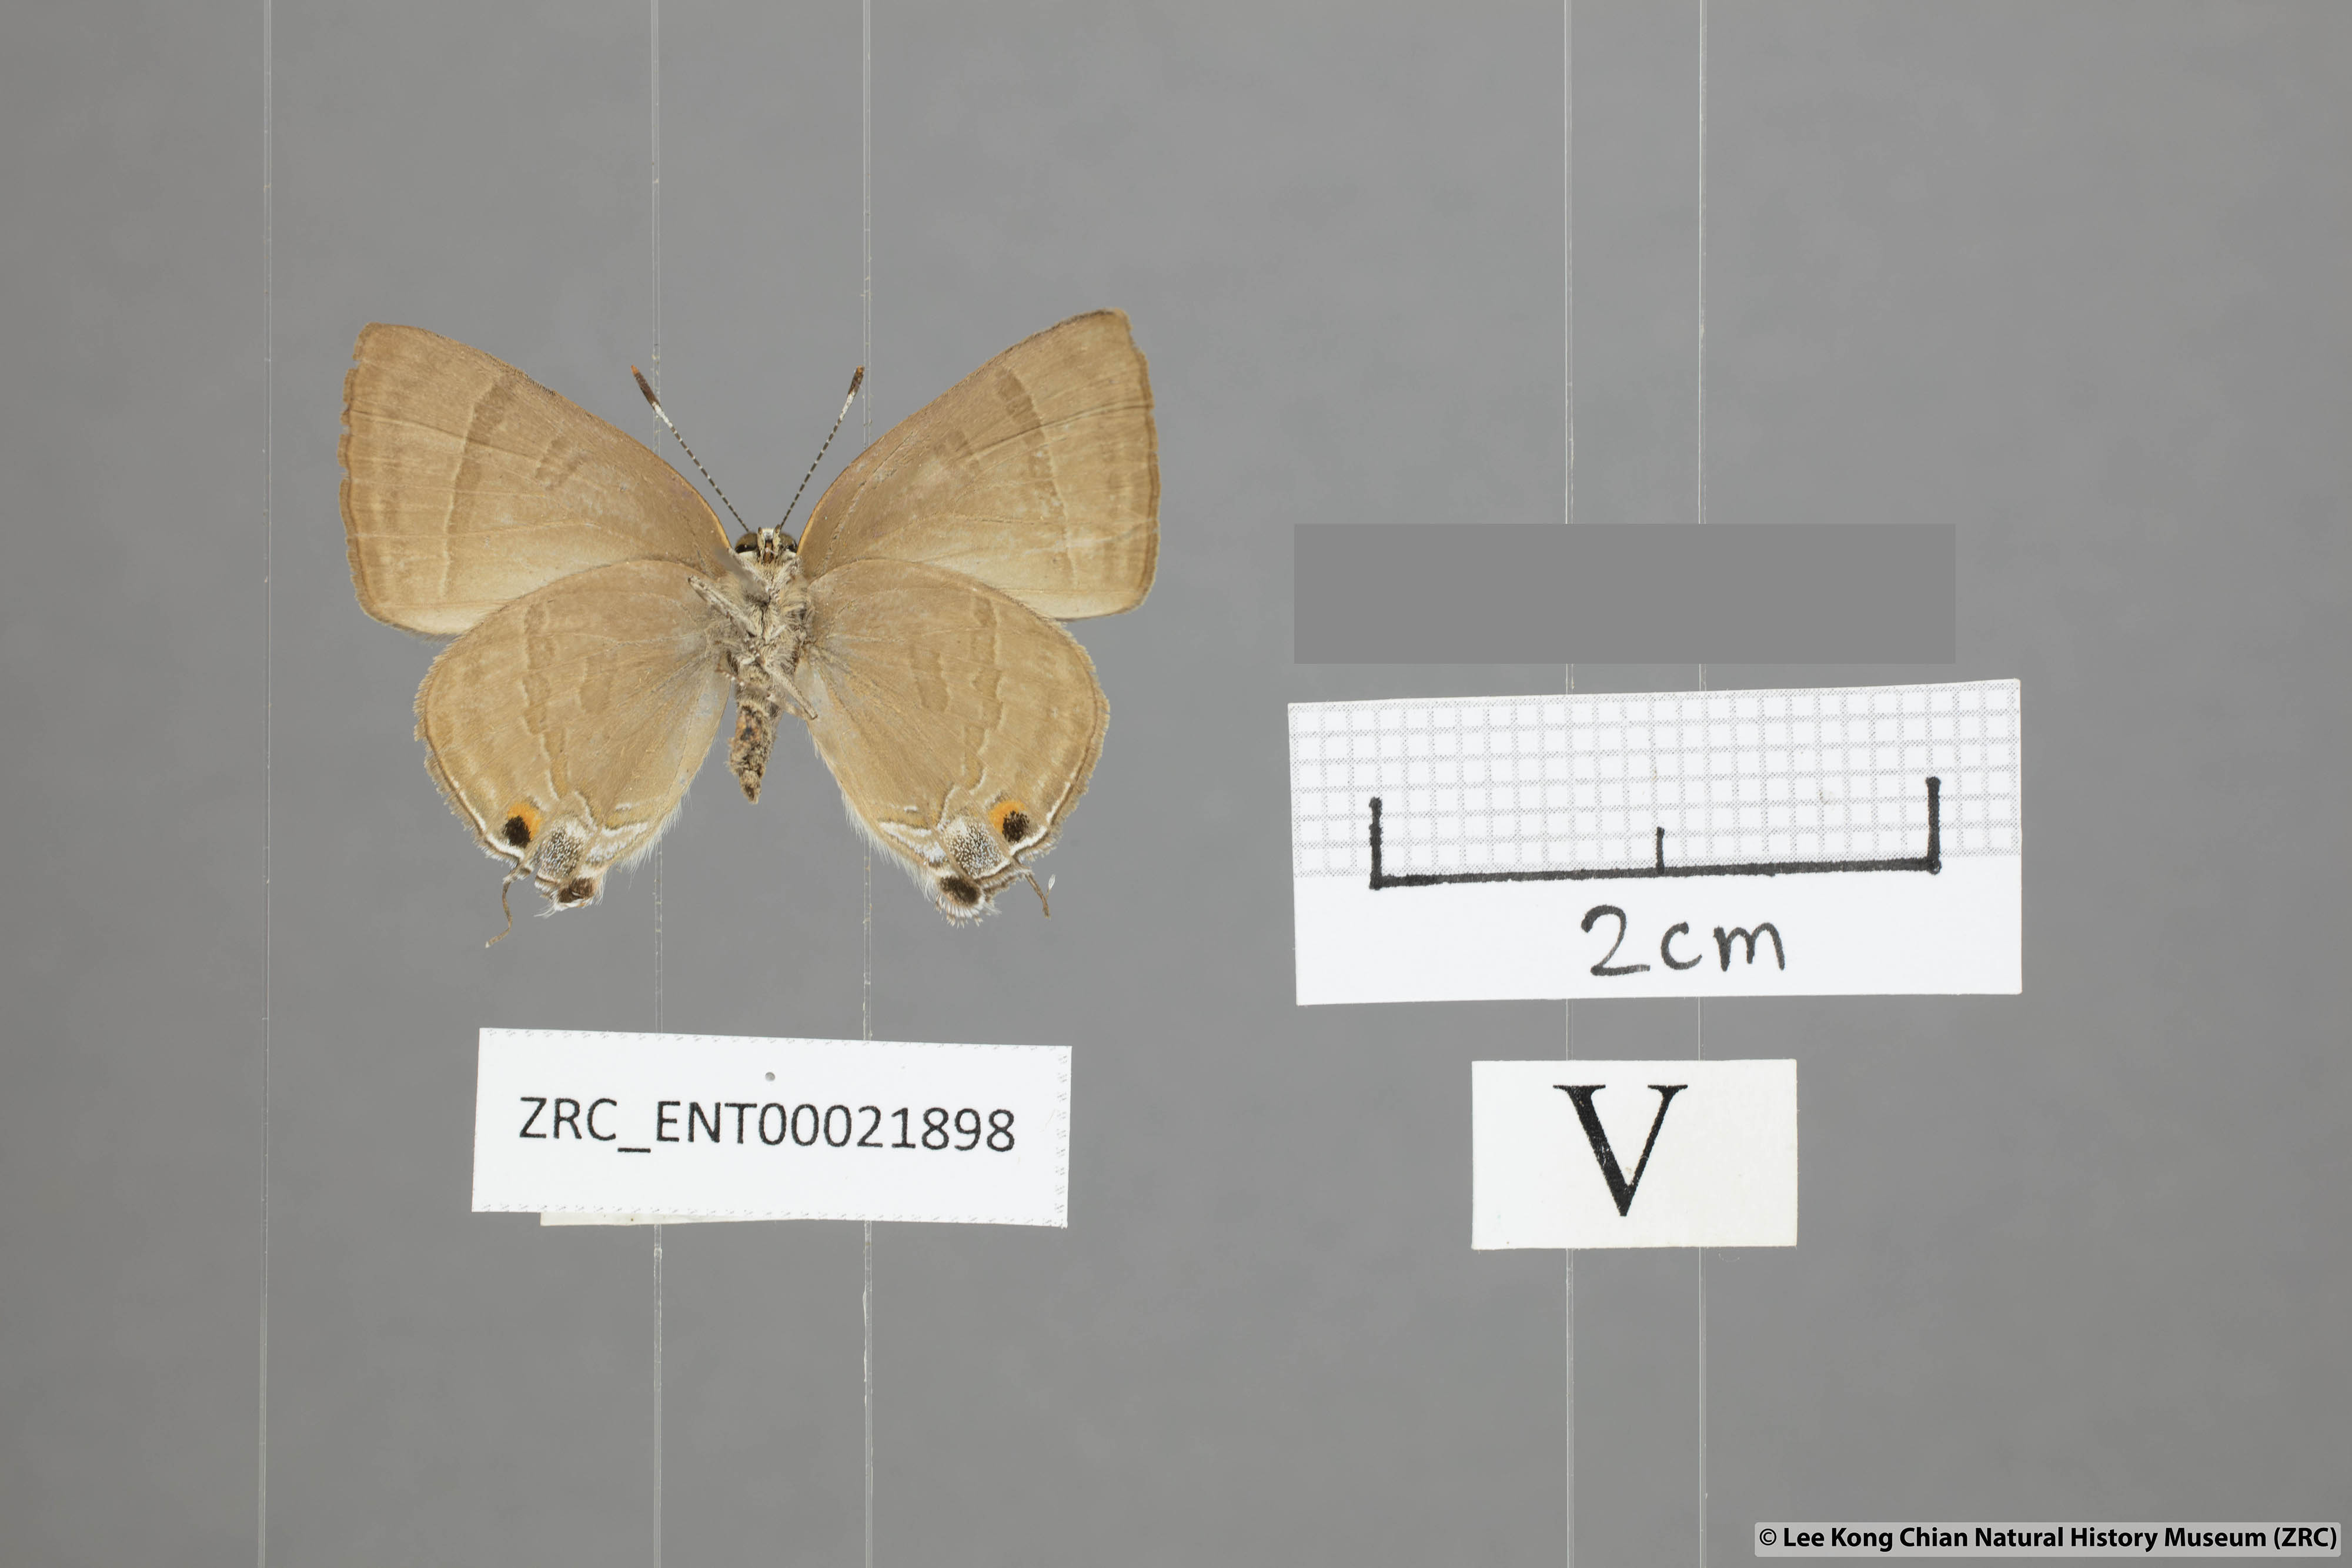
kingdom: Animalia
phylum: Arthropoda
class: Insecta
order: Lepidoptera
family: Lycaenidae
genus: Rapala
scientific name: Rapala scintilla
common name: Scarce slate flash
